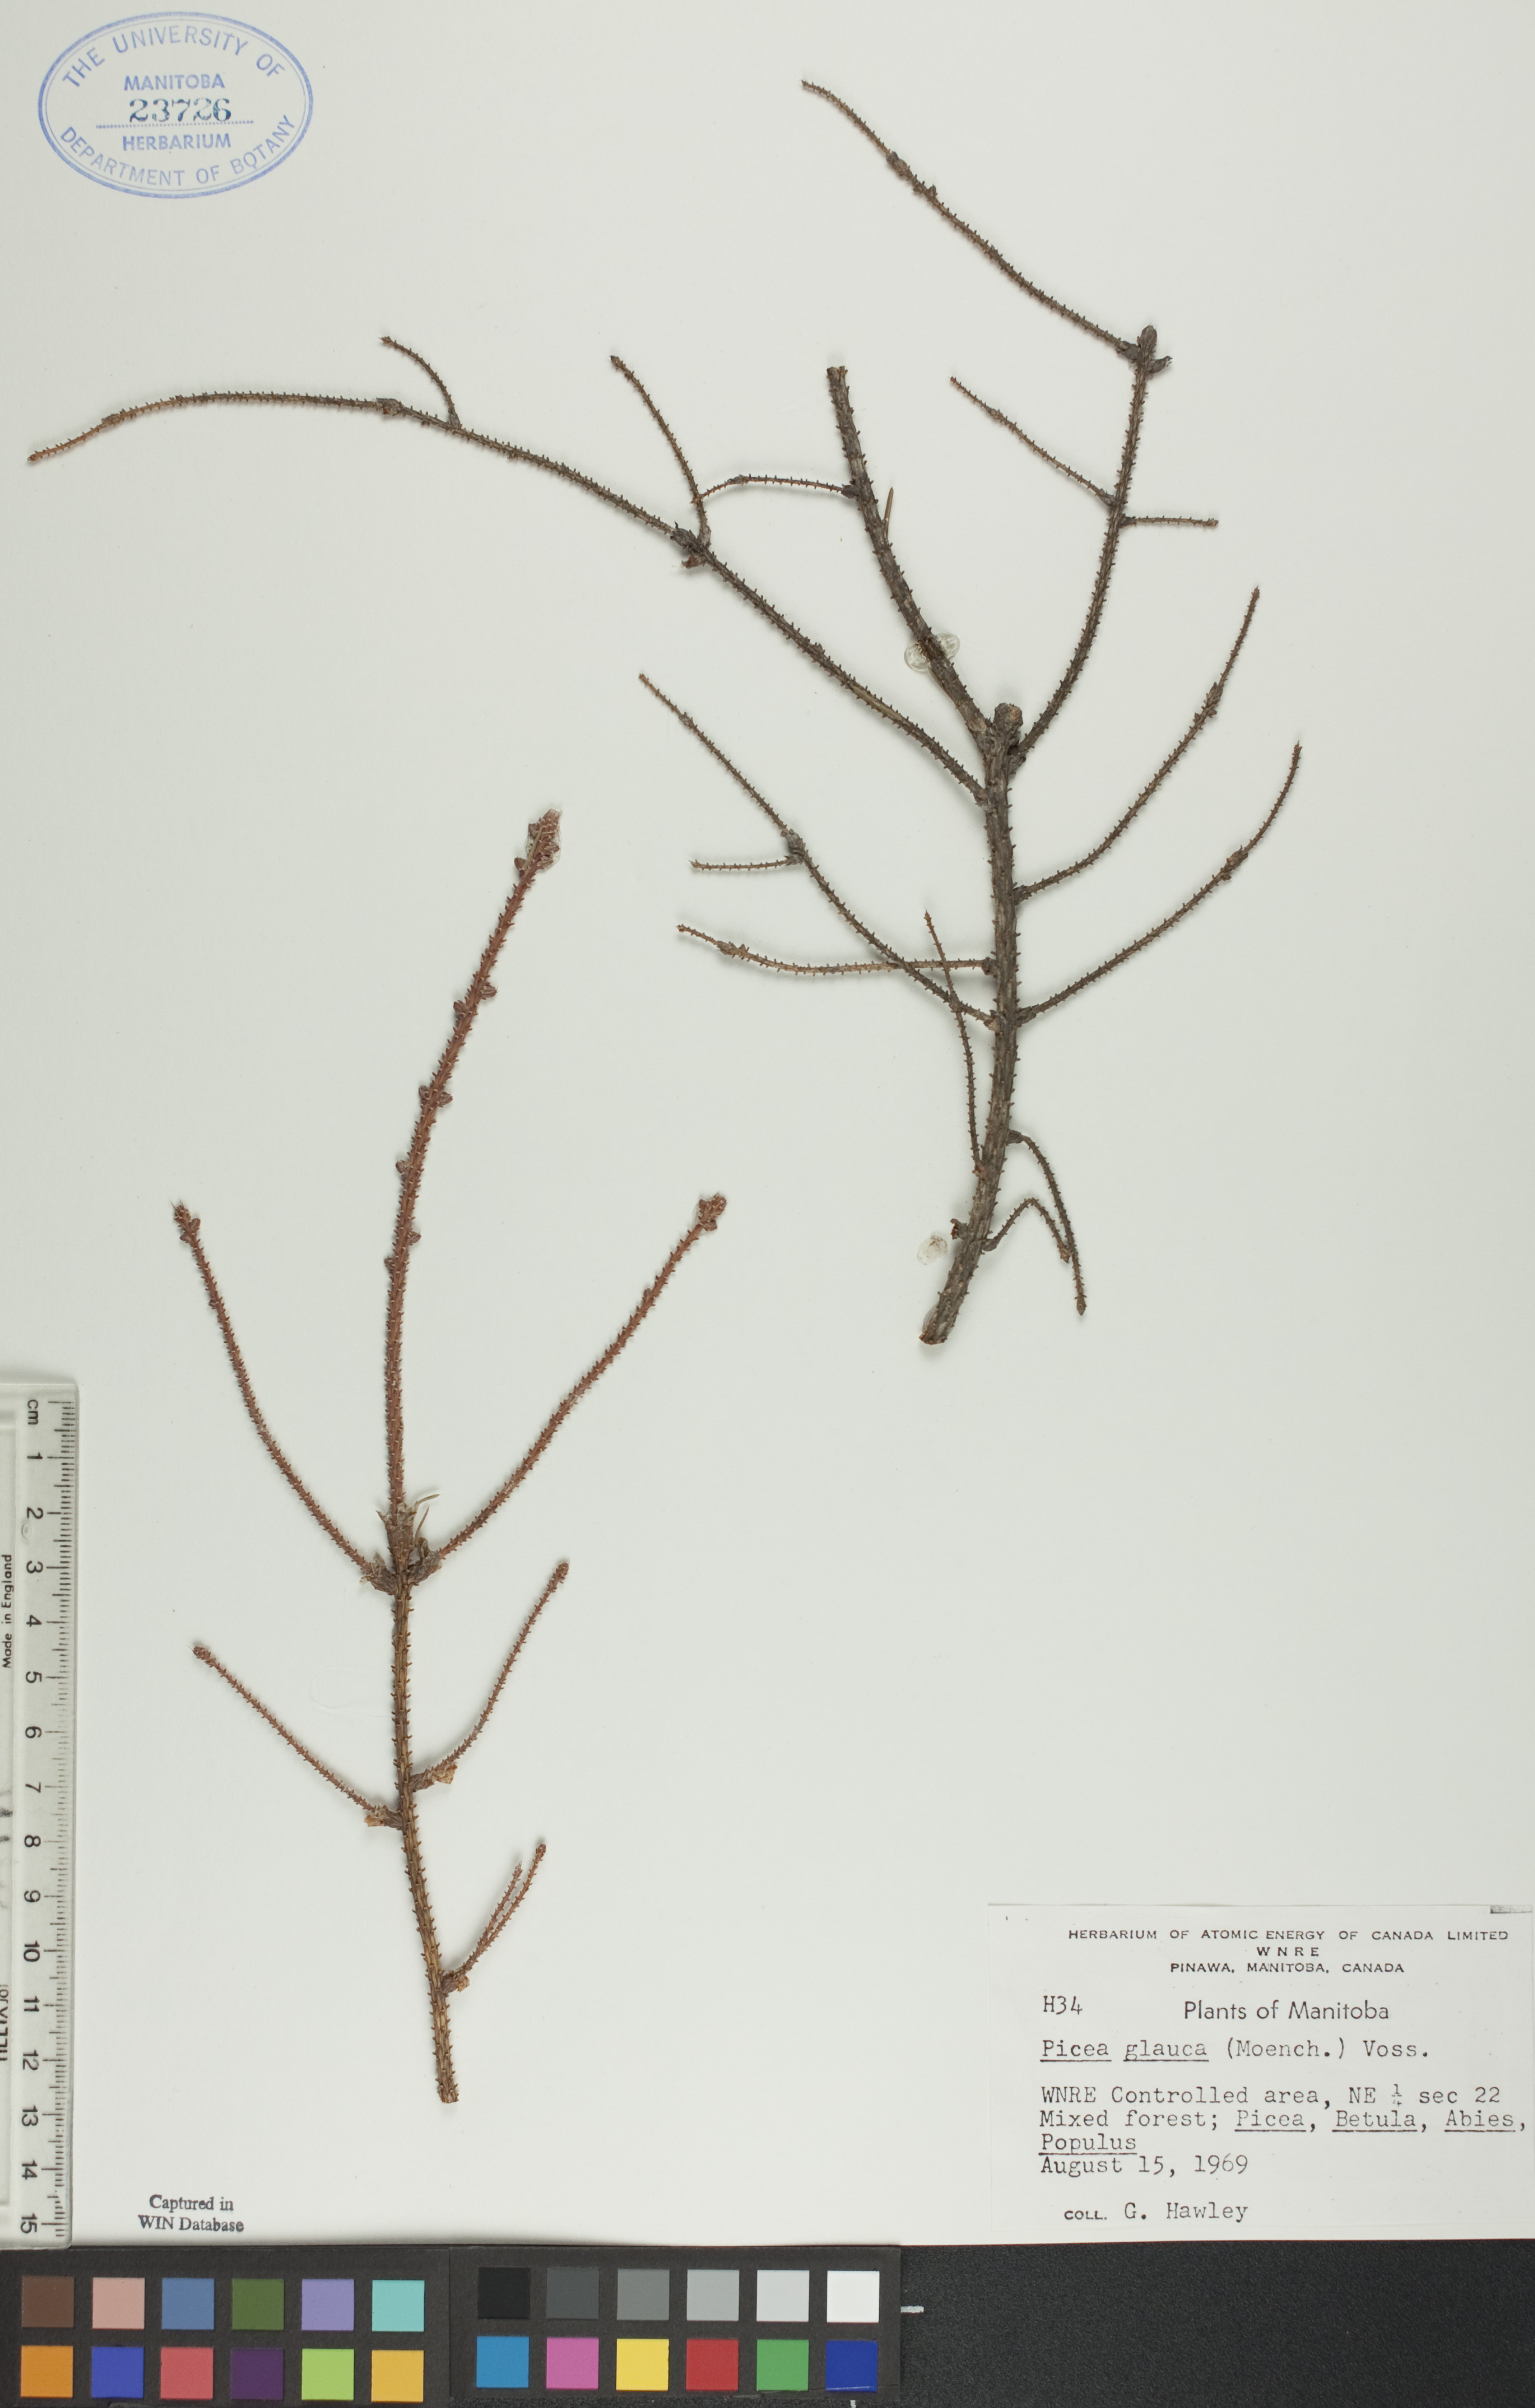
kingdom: Plantae
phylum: Tracheophyta
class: Pinopsida
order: Pinales
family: Pinaceae
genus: Picea
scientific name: Picea glauca
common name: White spruce
